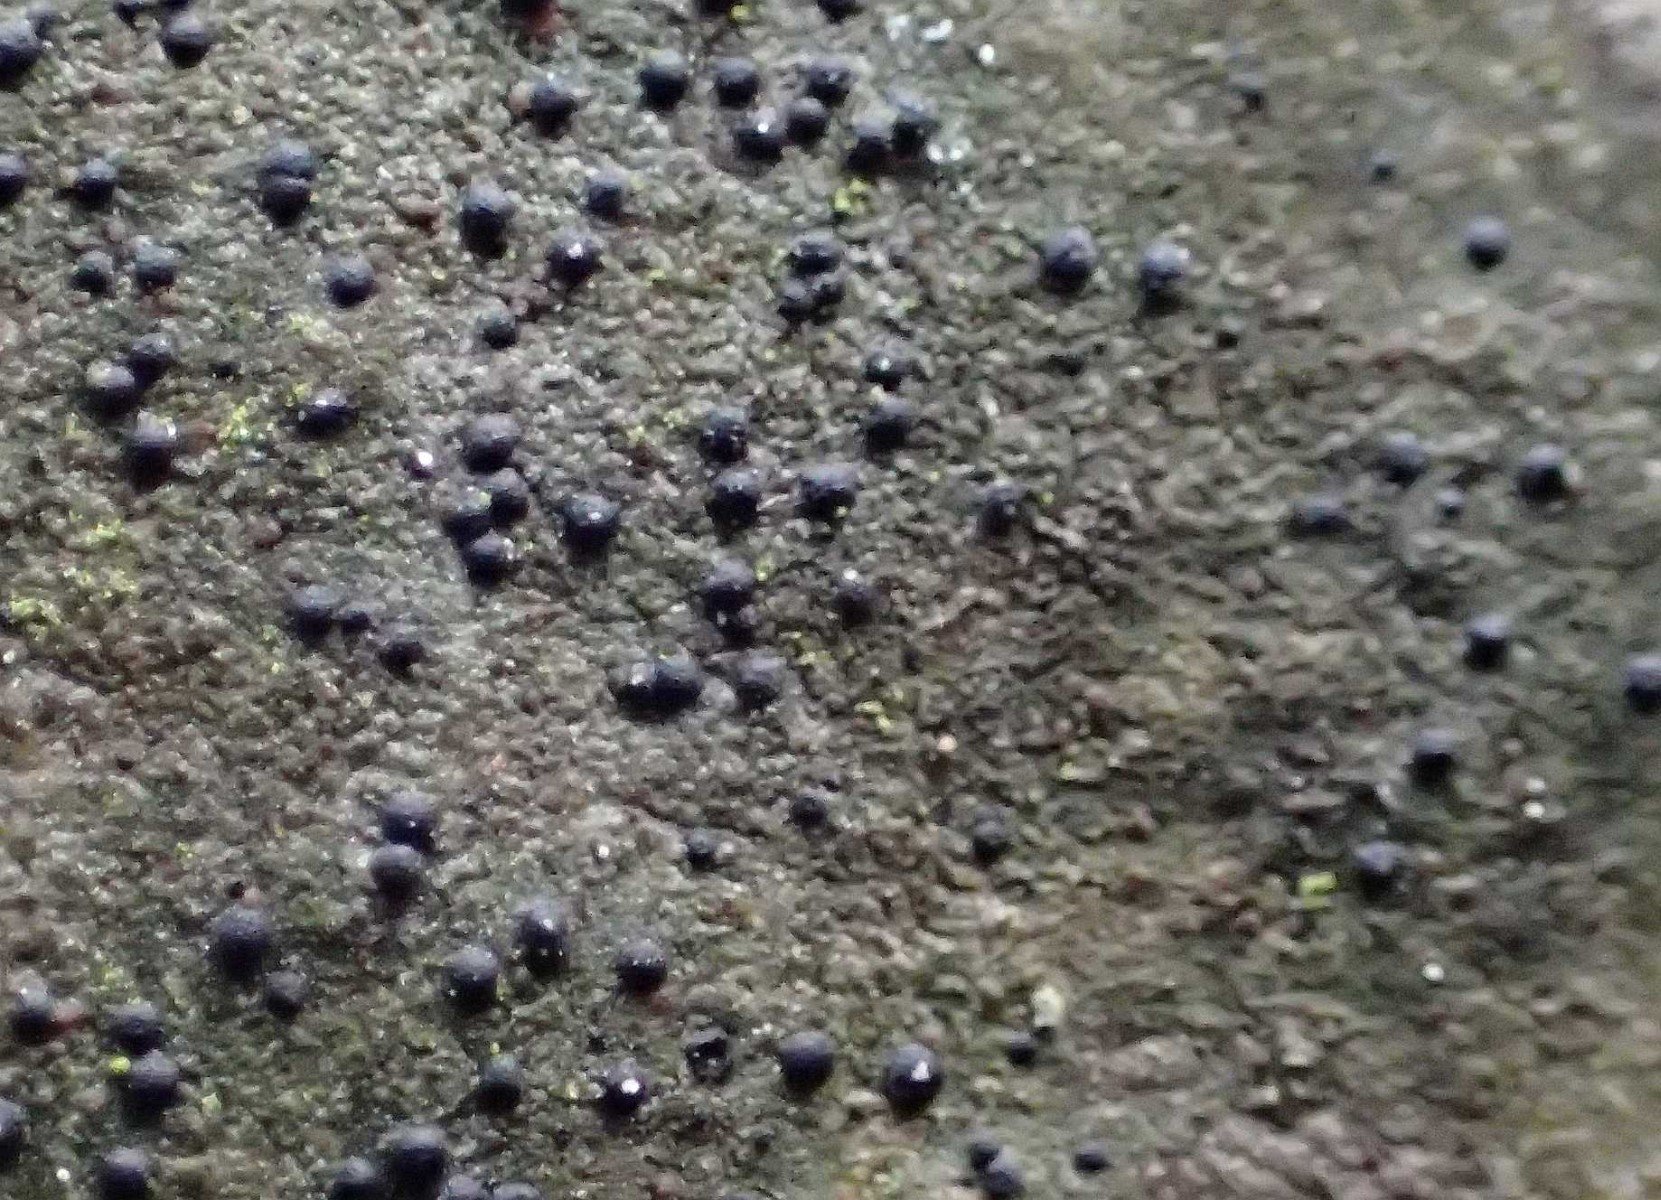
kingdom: Fungi
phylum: Ascomycota
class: Lecanoromycetes
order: Ostropales
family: Porinaceae
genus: Pseudosagedia
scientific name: Pseudosagedia aenea
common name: grønlig porina
